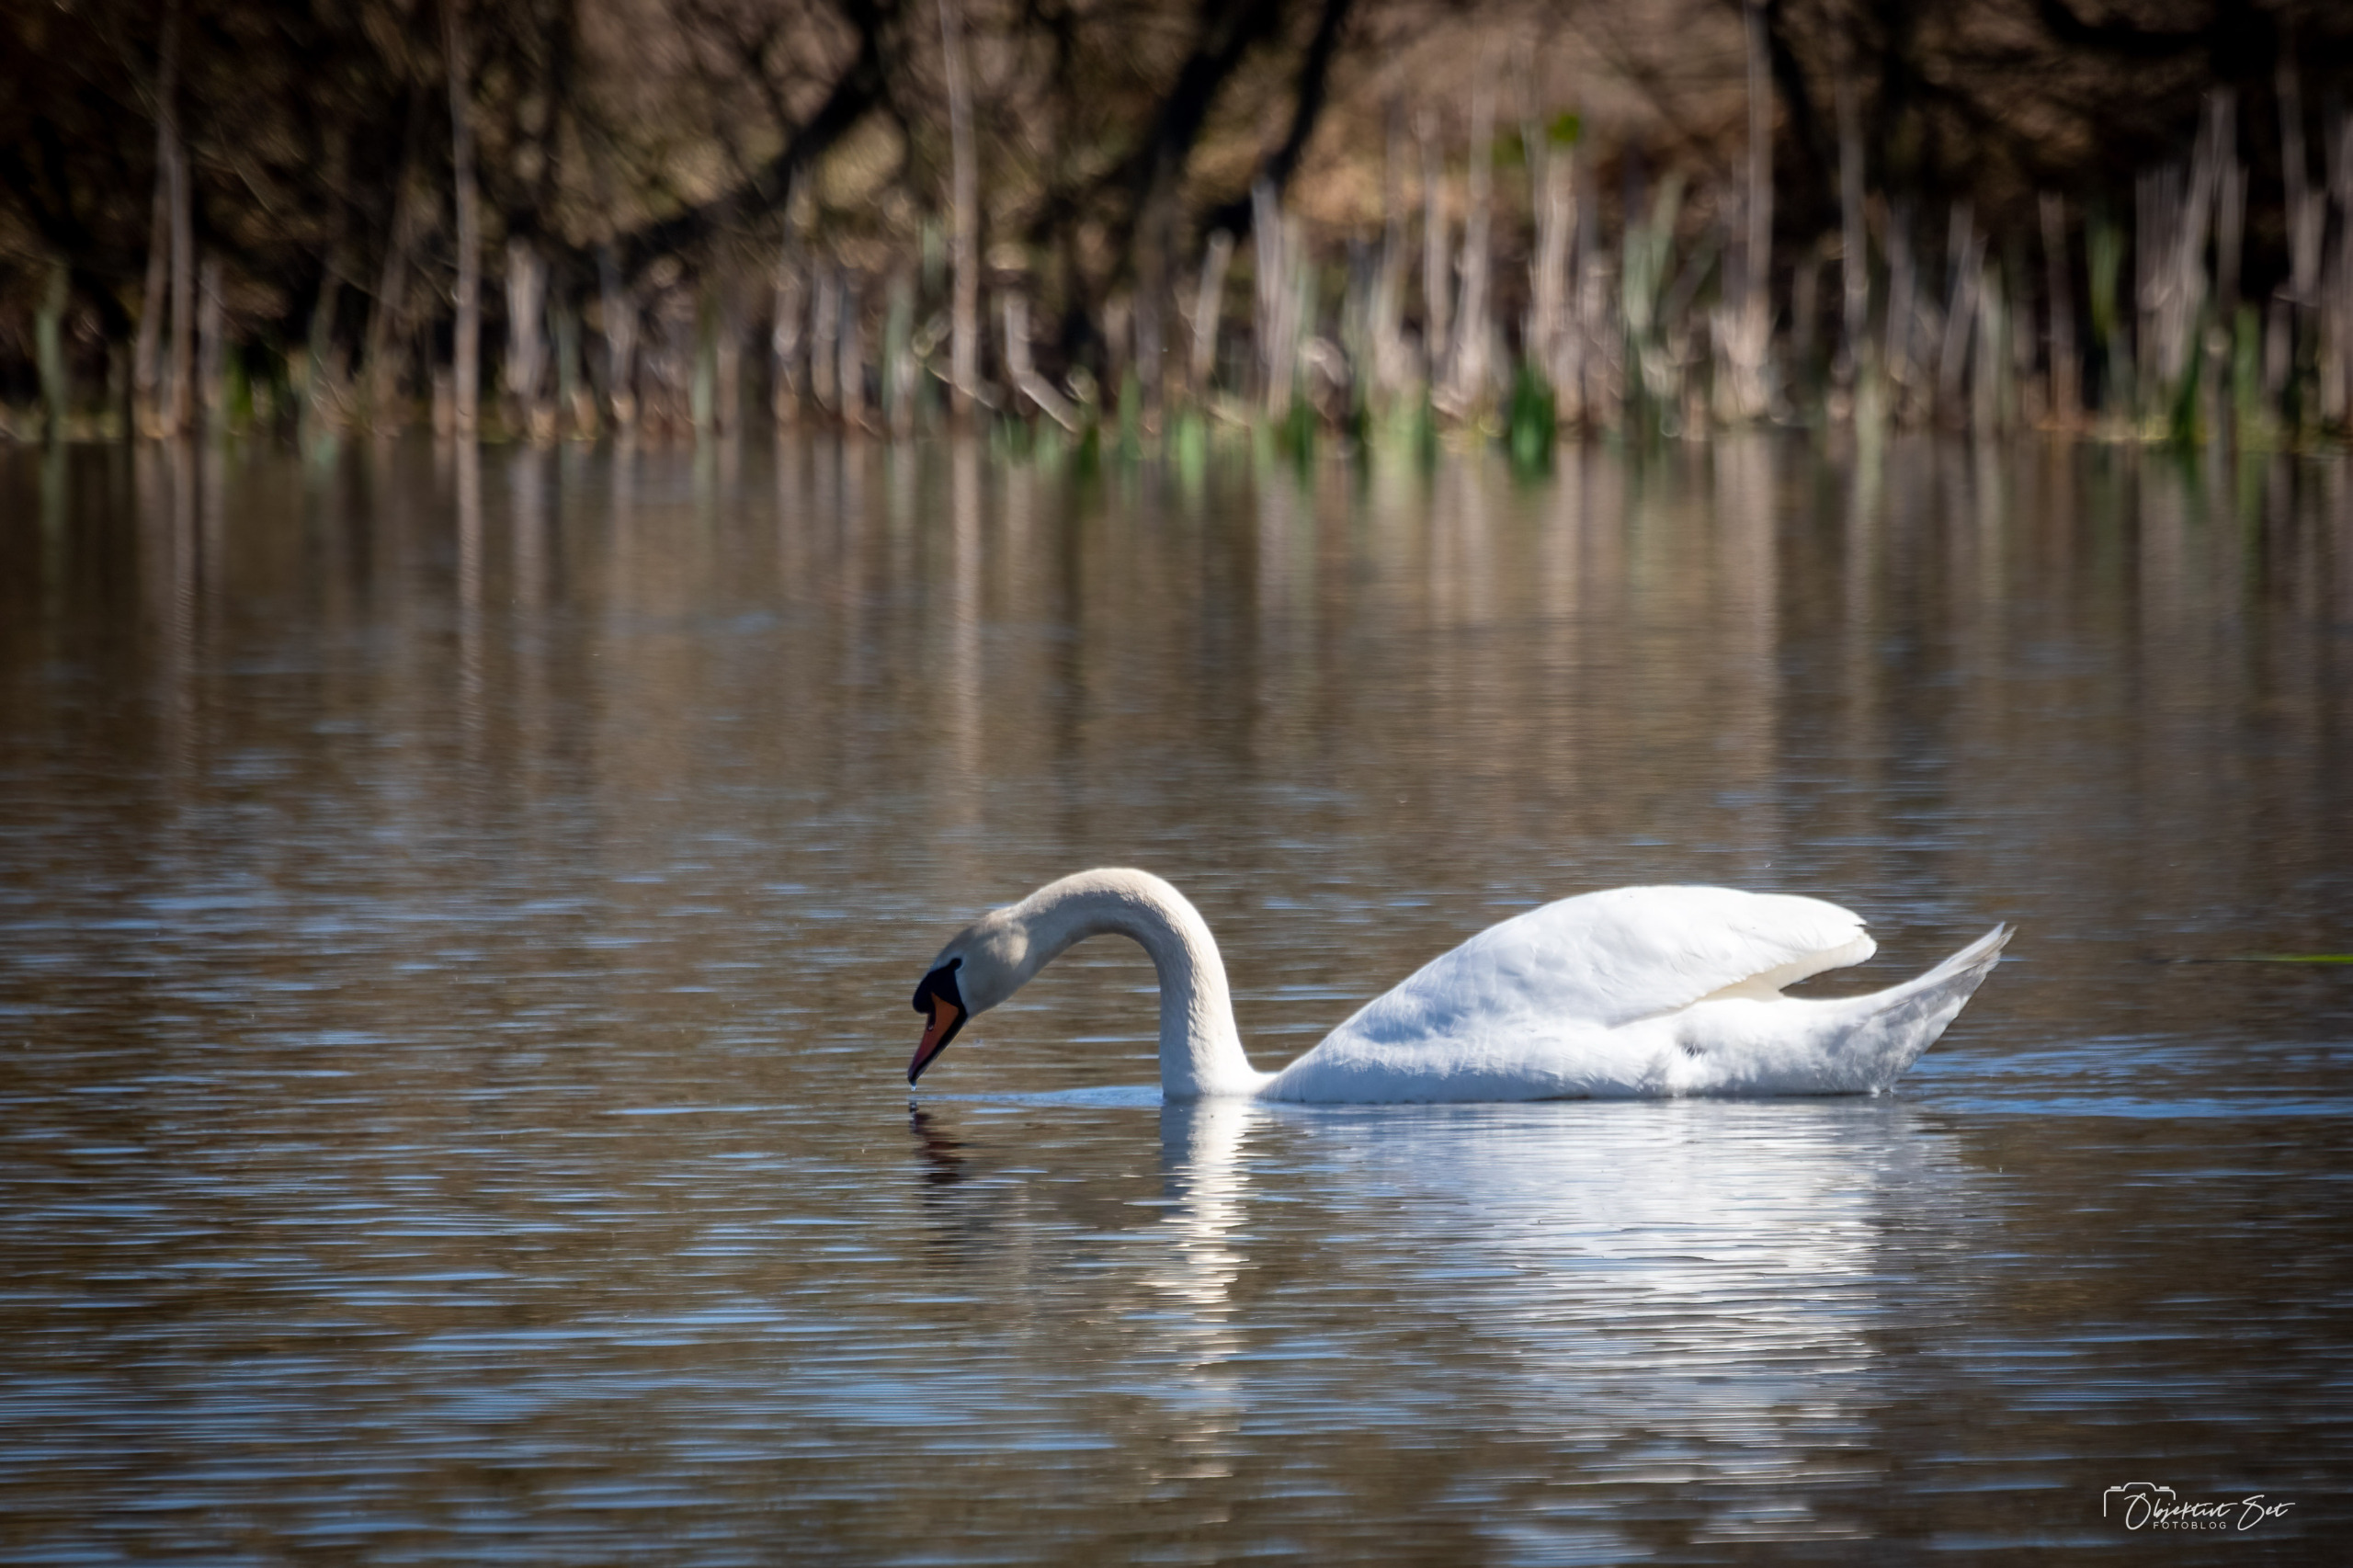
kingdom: Animalia
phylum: Chordata
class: Aves
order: Anseriformes
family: Anatidae
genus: Cygnus
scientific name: Cygnus olor
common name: Knopsvane
